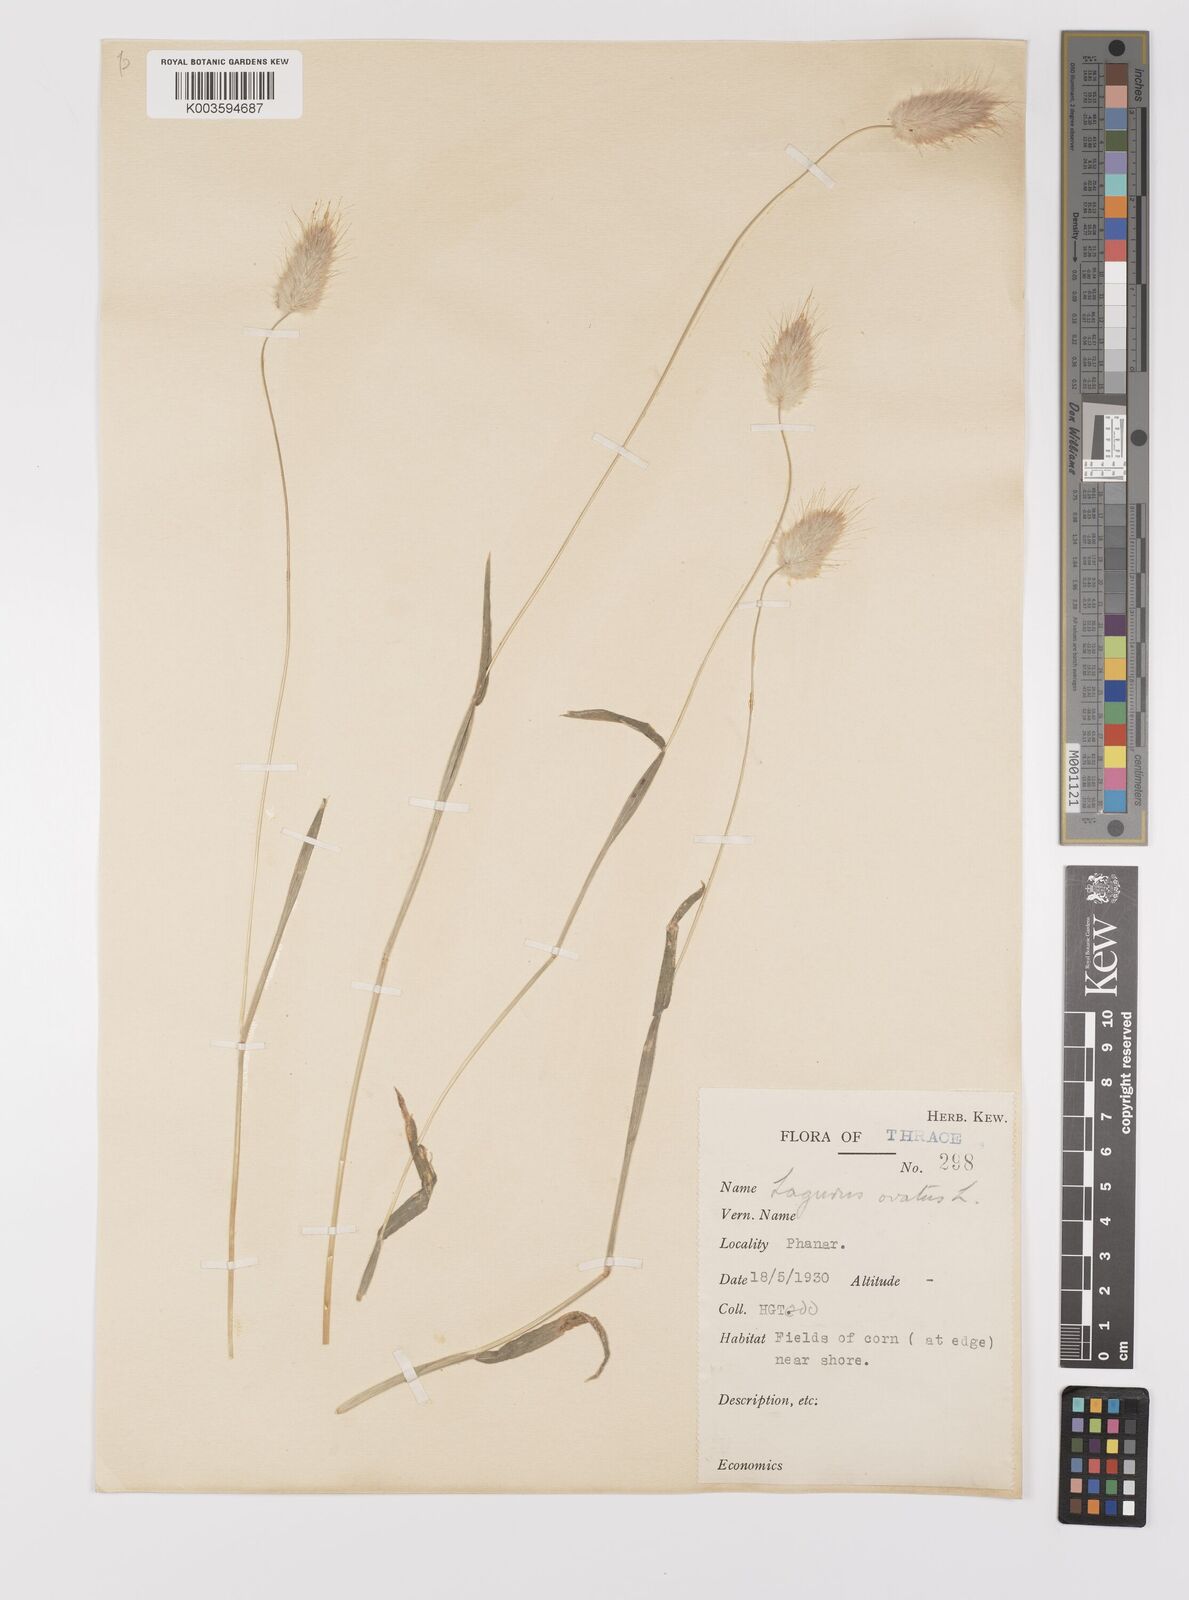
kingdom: Plantae
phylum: Tracheophyta
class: Liliopsida
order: Poales
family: Poaceae
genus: Lagurus
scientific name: Lagurus ovatus
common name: Hare's-tail
